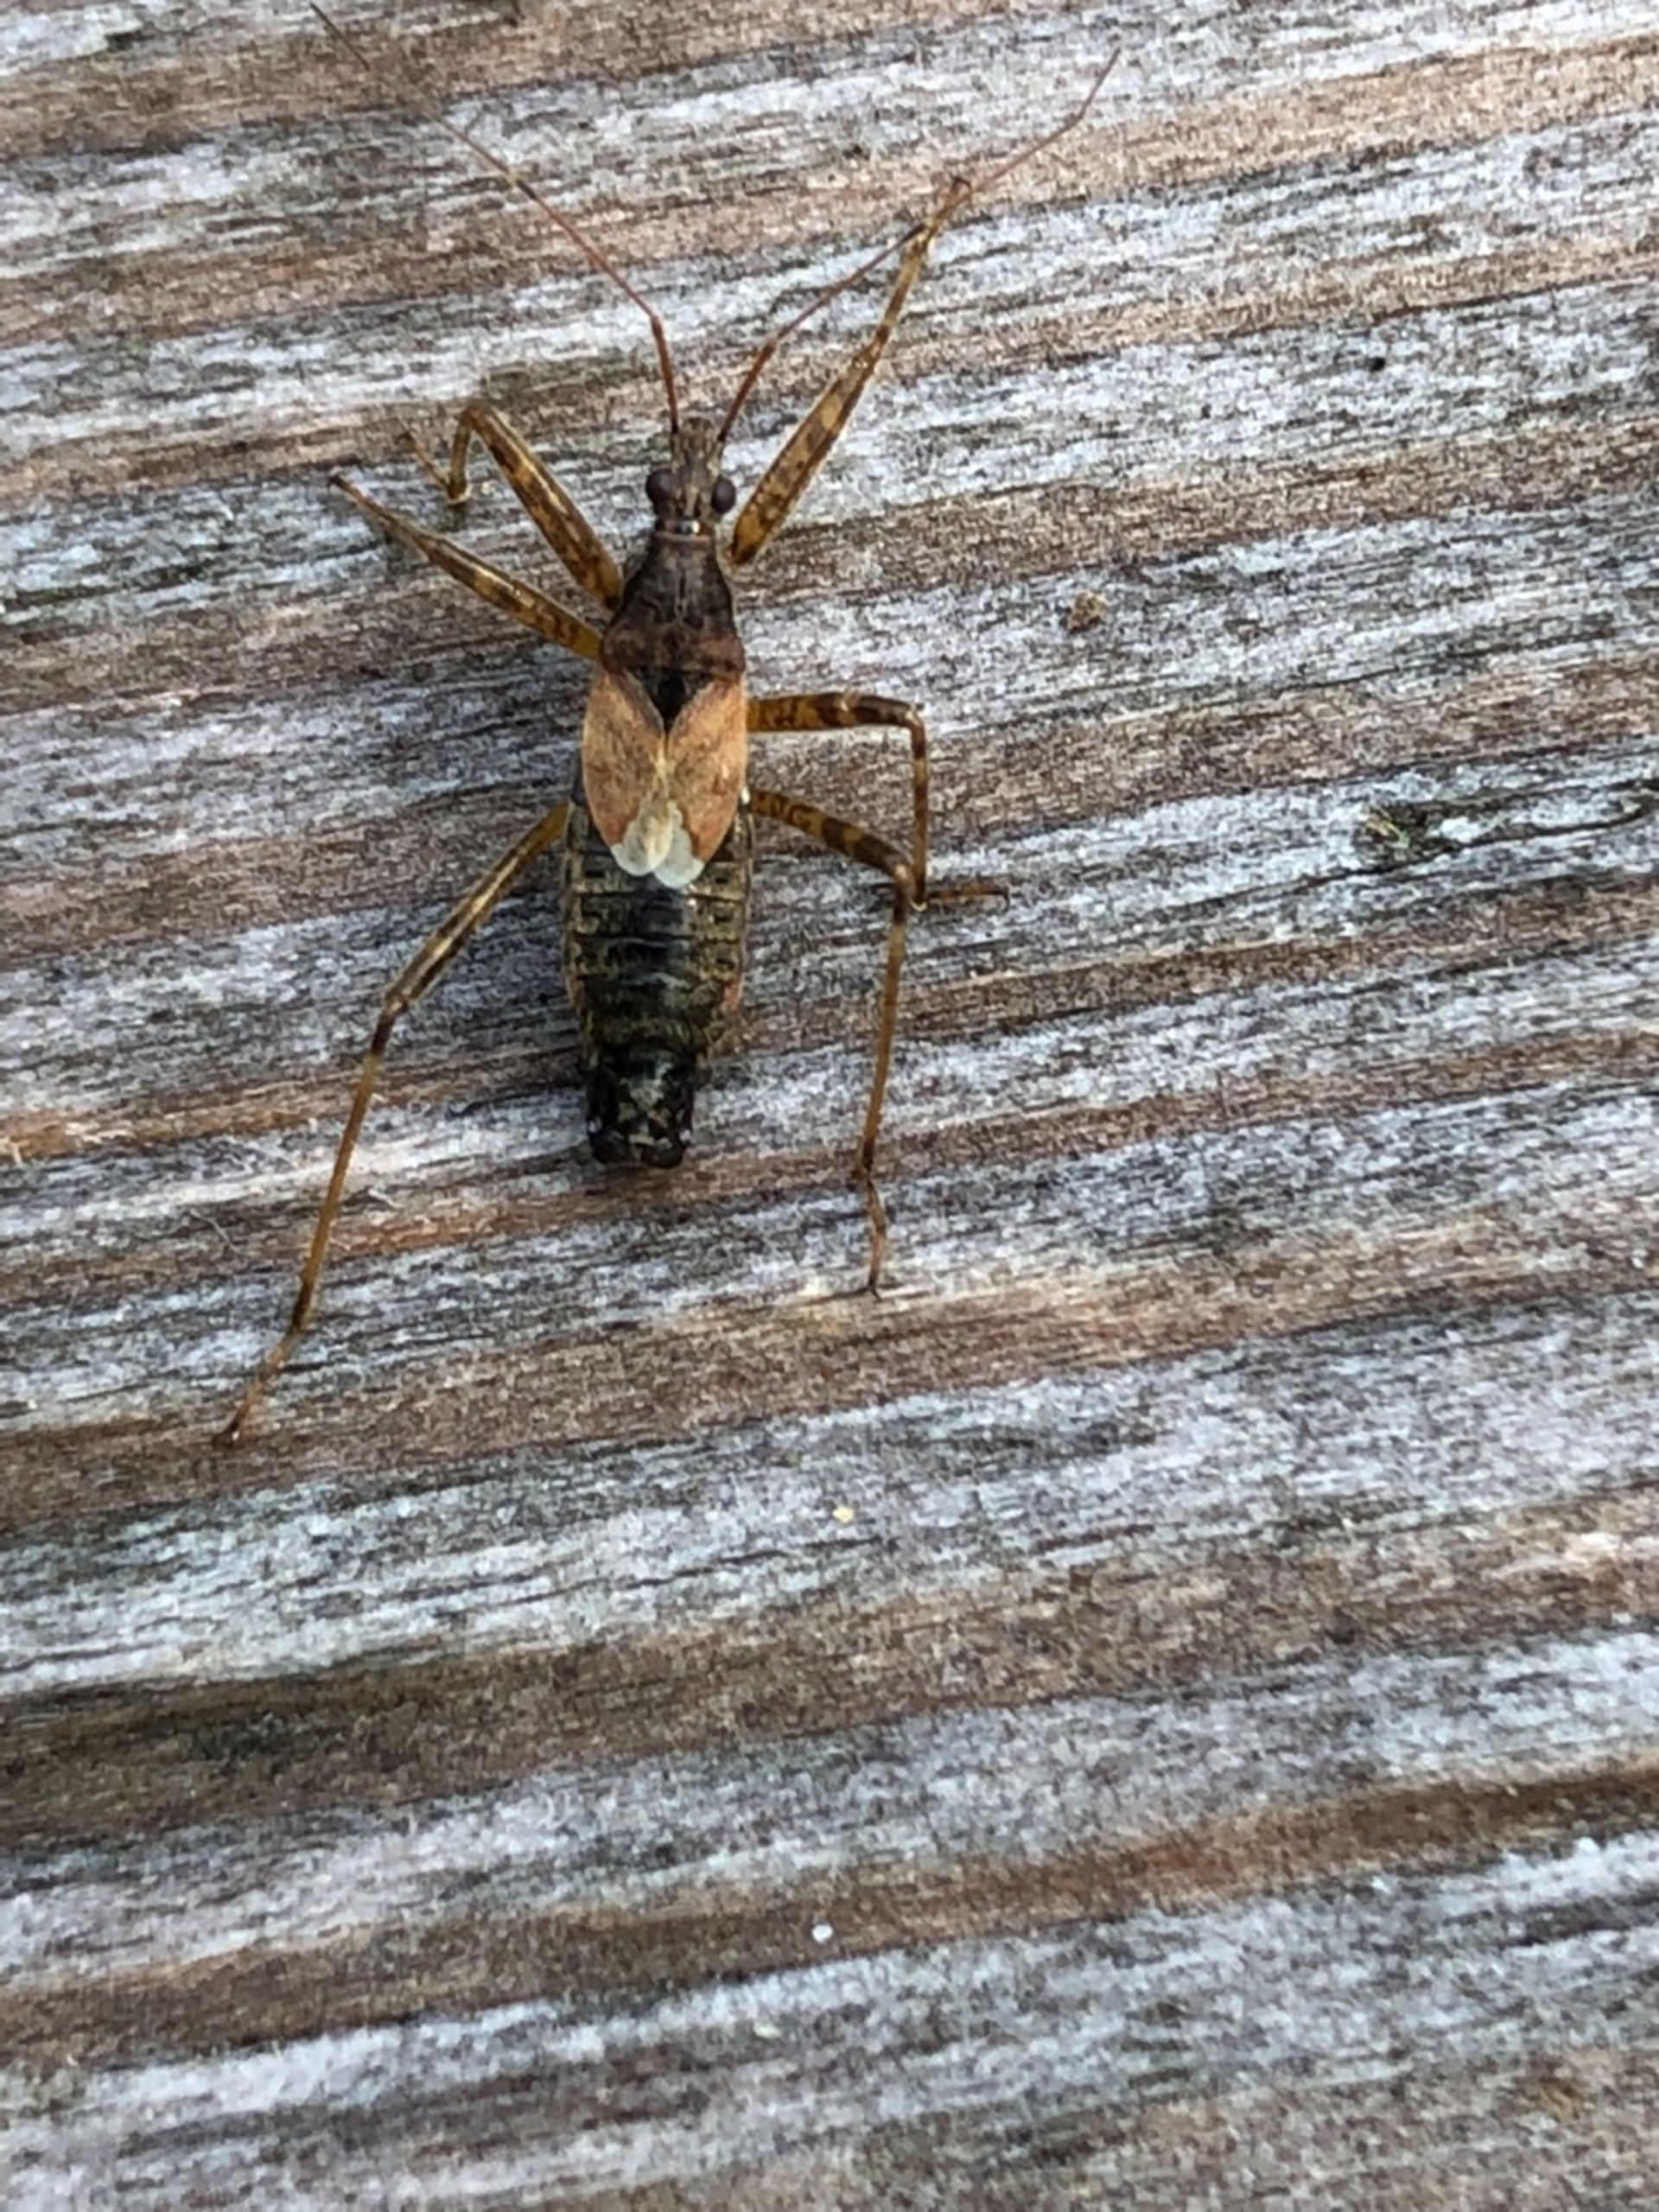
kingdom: Animalia
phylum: Arthropoda
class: Insecta
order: Hemiptera
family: Nabidae
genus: Himacerus
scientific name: Himacerus apterus
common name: Stor nymfetæge
